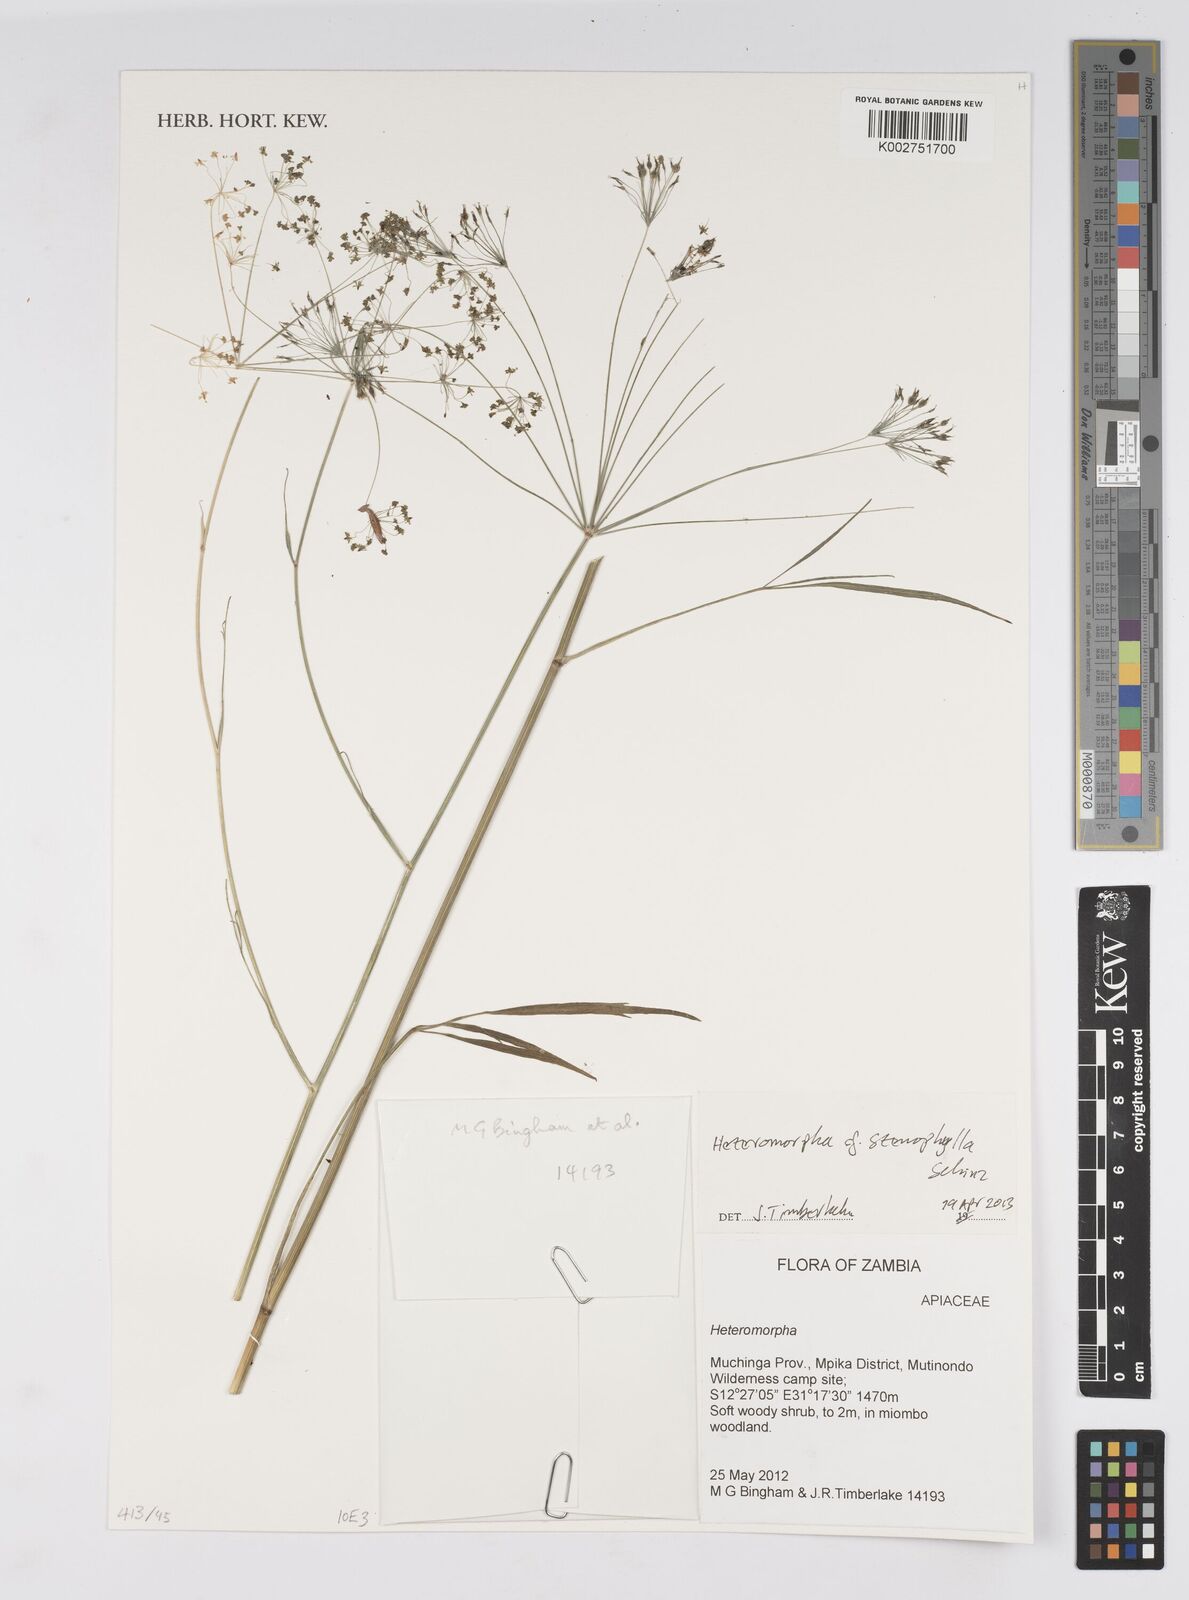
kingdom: Plantae
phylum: Tracheophyta
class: Magnoliopsida
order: Apiales
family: Apiaceae
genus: Heteromorpha
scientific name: Heteromorpha stenophylla
